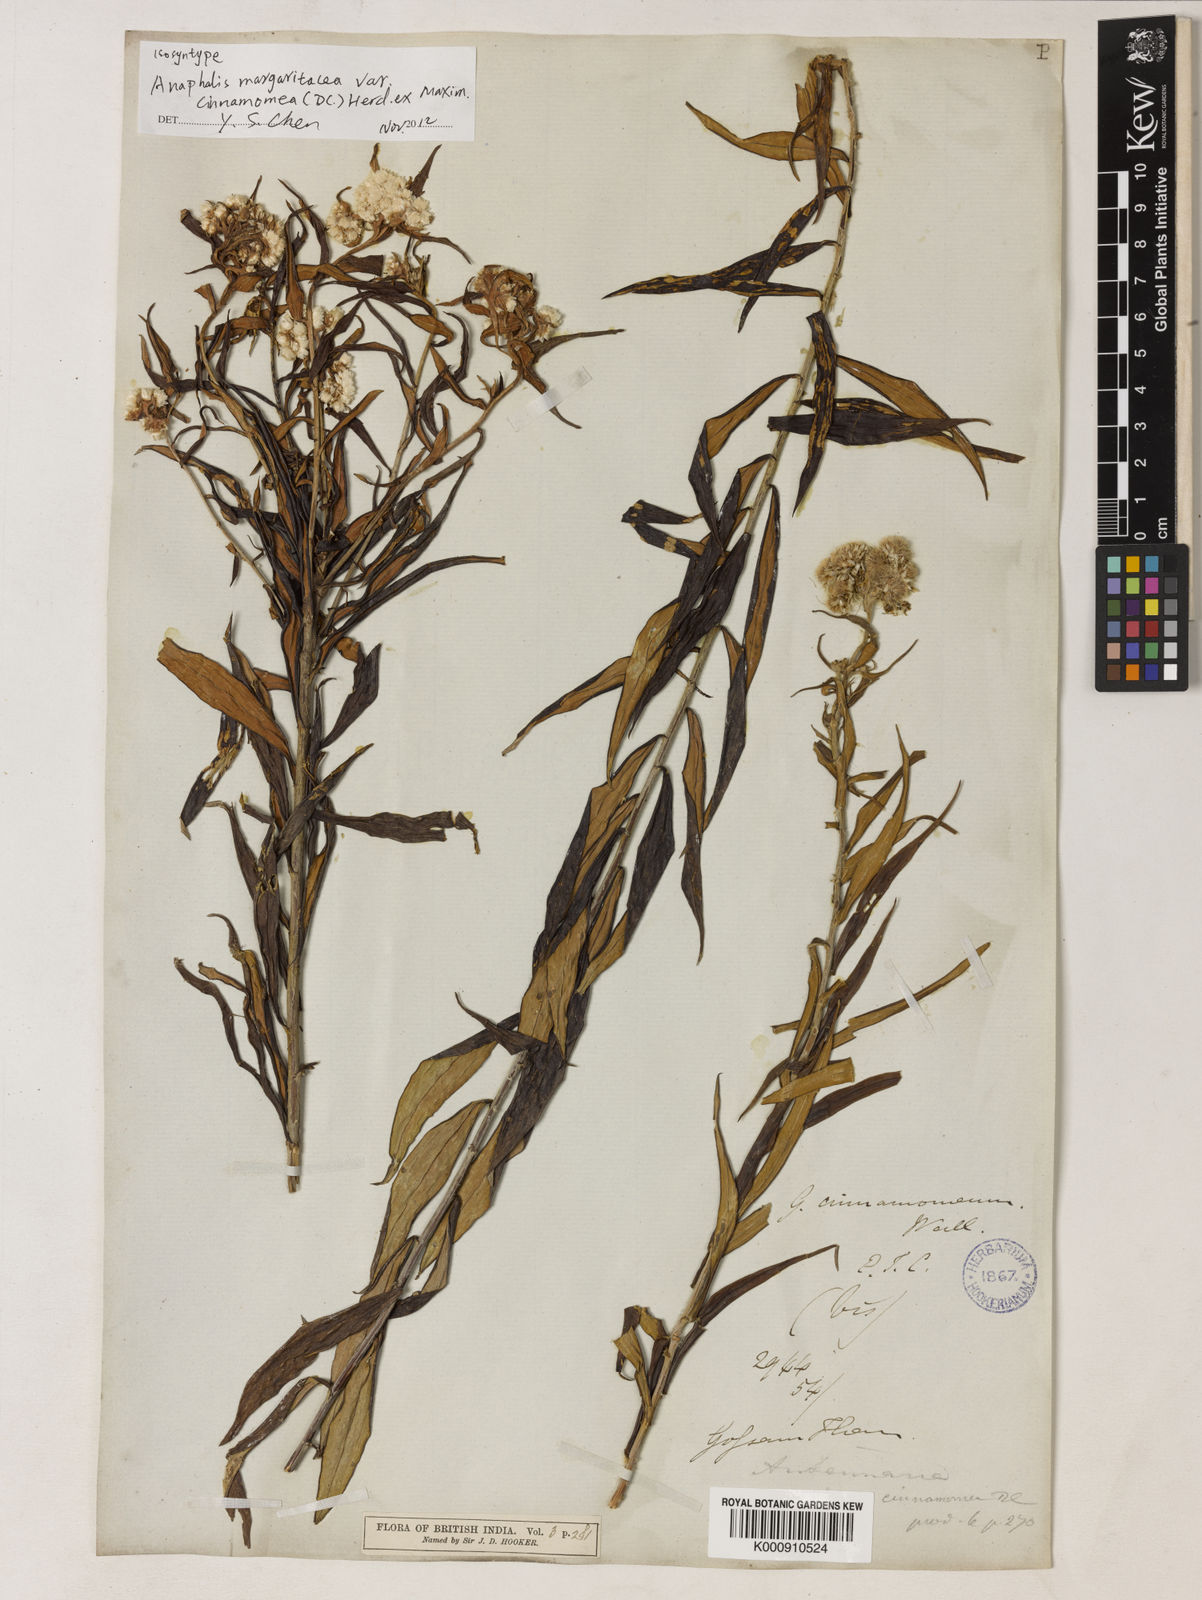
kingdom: Plantae
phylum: Tracheophyta
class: Magnoliopsida
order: Asterales
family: Asteraceae
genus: Anaphalis
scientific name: Anaphalis
